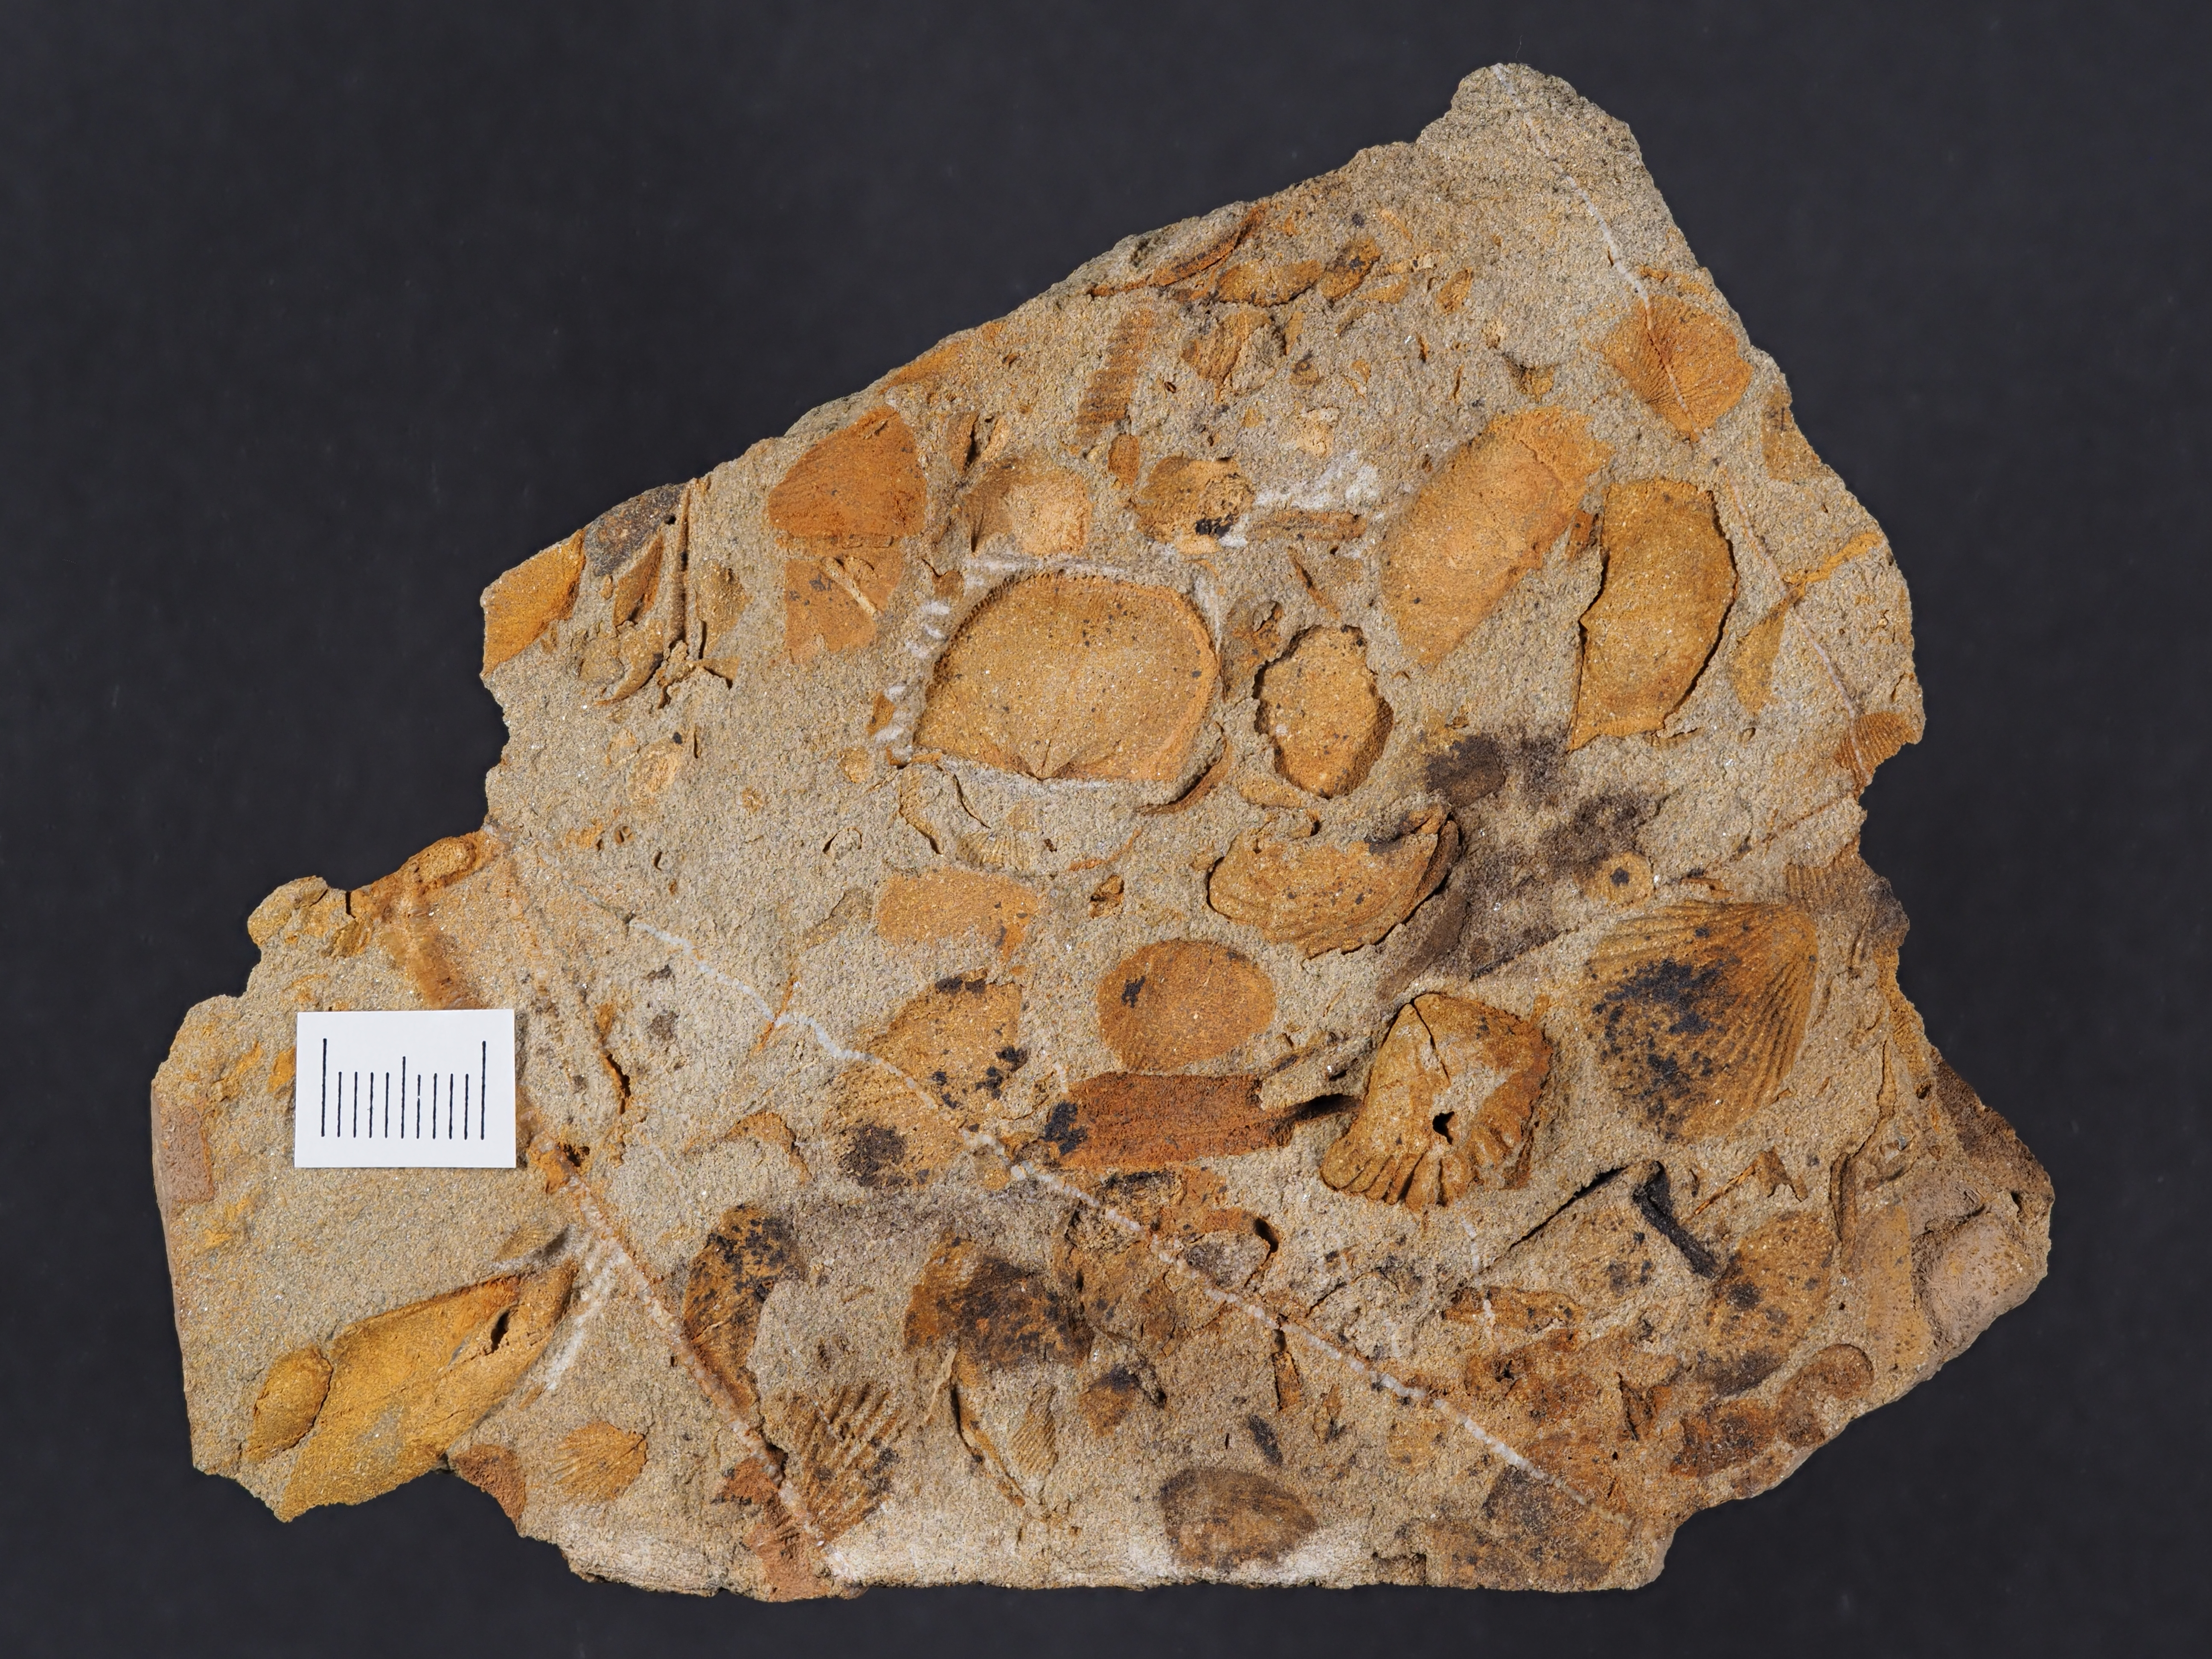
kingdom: Animalia
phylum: Brachiopoda
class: Rhynchonellata
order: Rhynchonellida
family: Trigonirhynchiidae
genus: Oligoptycherhynchus
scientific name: Oligoptycherhynchus
